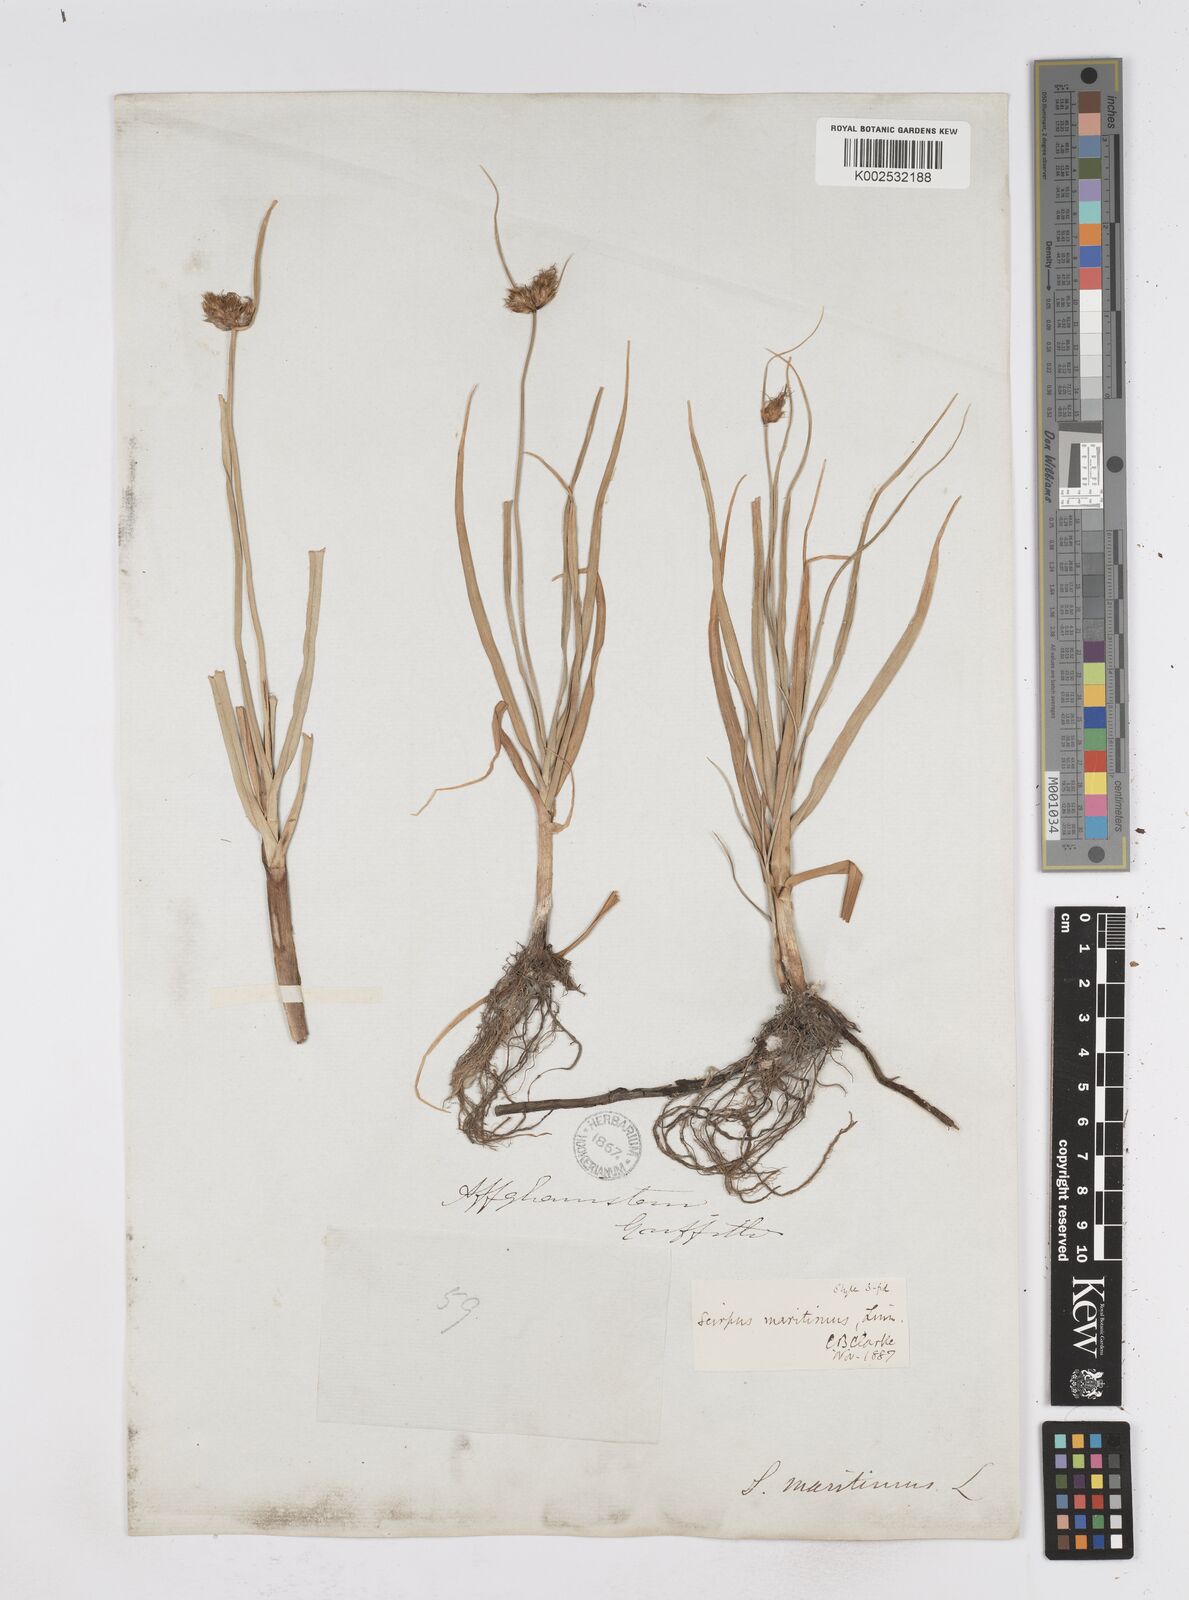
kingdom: Plantae
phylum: Tracheophyta
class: Liliopsida
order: Poales
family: Cyperaceae
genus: Bolboschoenus
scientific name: Bolboschoenus maritimus
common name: Sea club-rush
